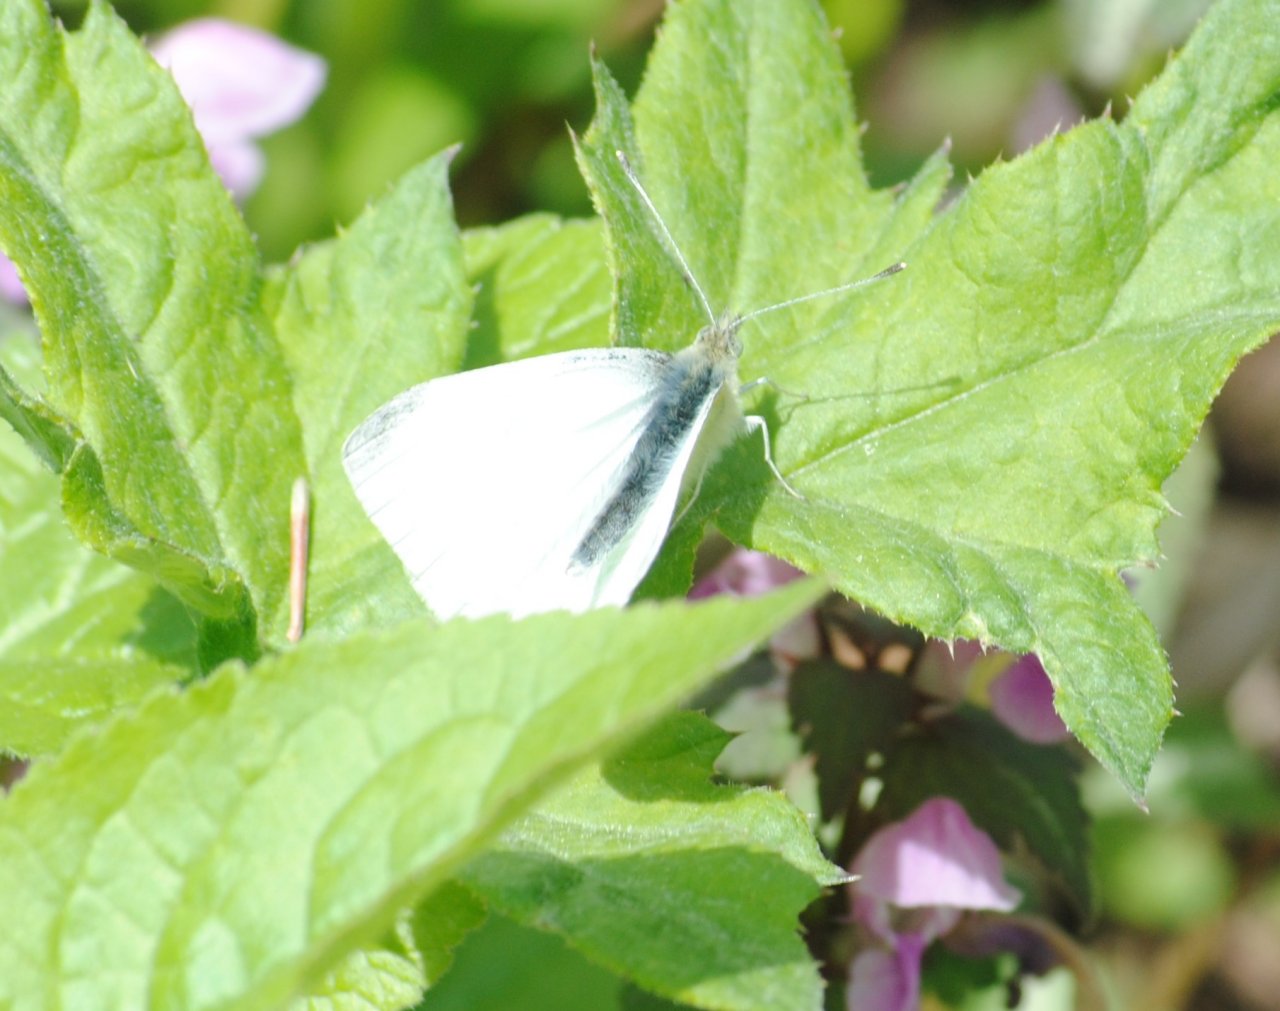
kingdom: Animalia
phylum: Arthropoda
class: Insecta
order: Lepidoptera
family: Pieridae
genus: Pieris
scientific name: Pieris rapae
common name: Cabbage White
